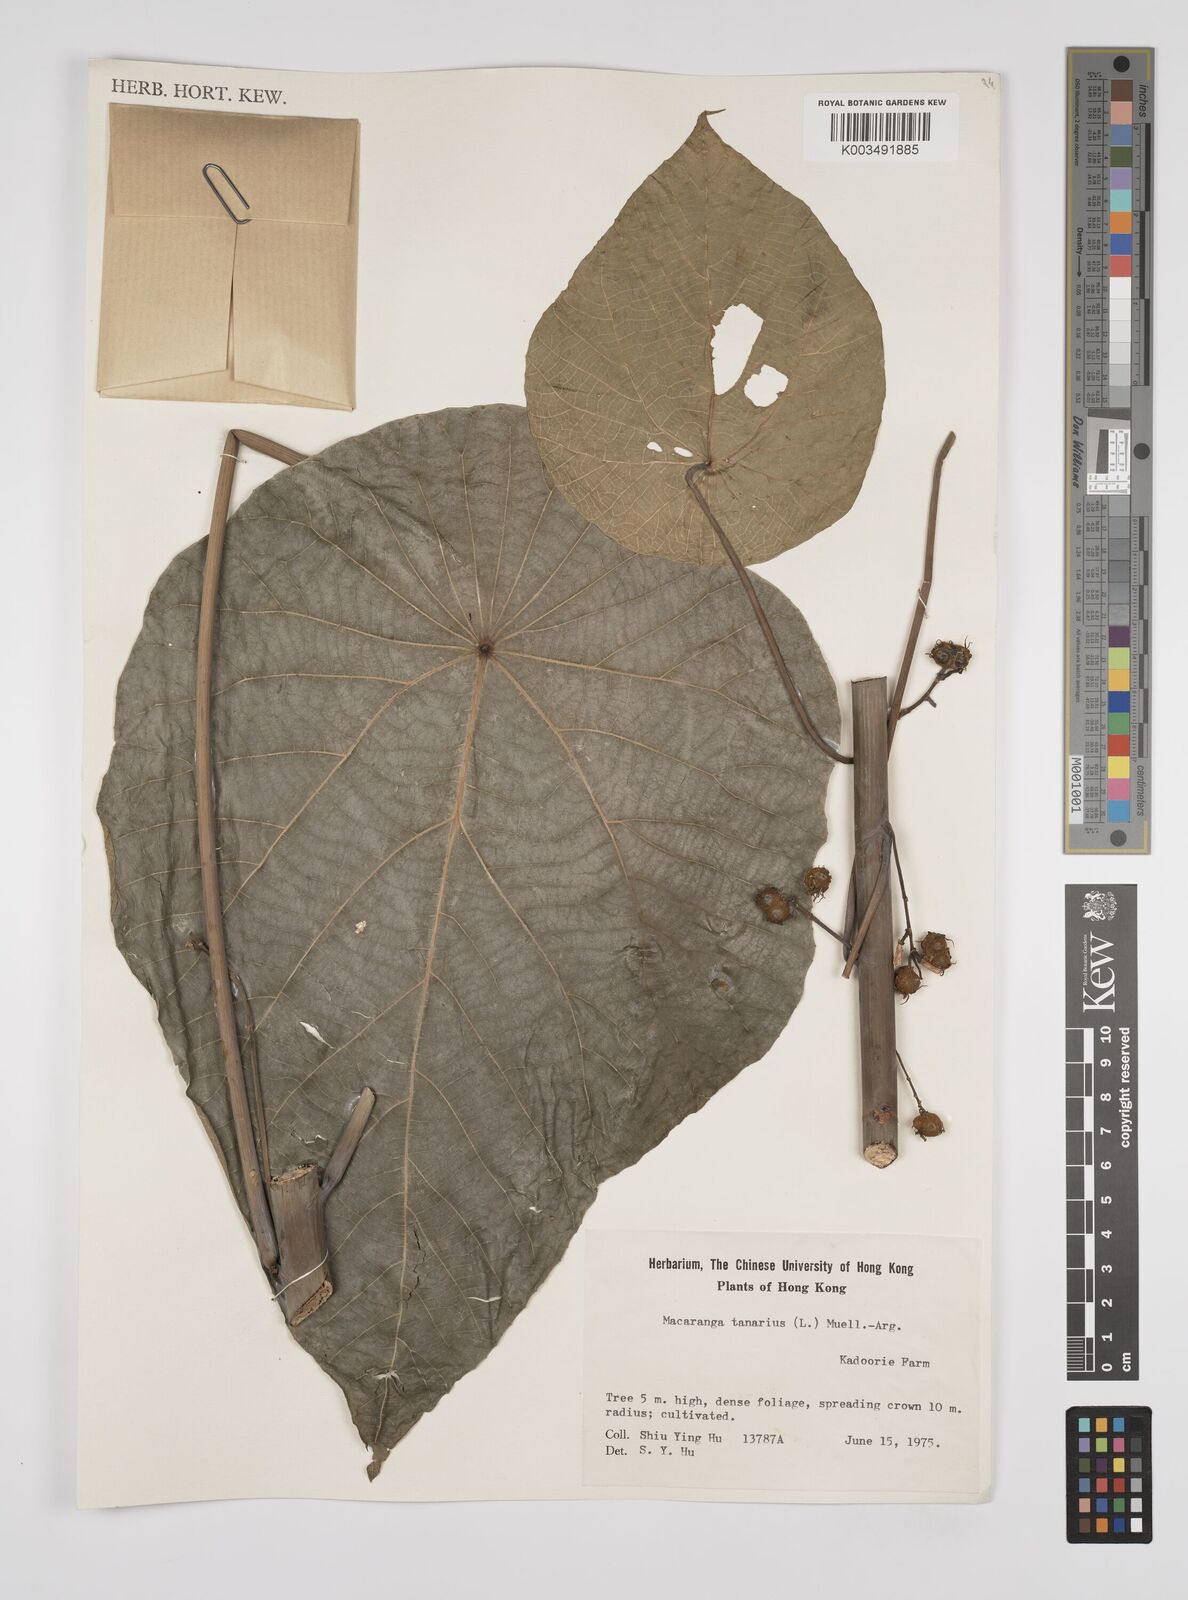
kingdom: Plantae
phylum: Tracheophyta
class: Magnoliopsida
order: Malpighiales
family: Euphorbiaceae
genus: Macaranga
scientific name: Macaranga tanarius
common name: Parasol leaf tree
